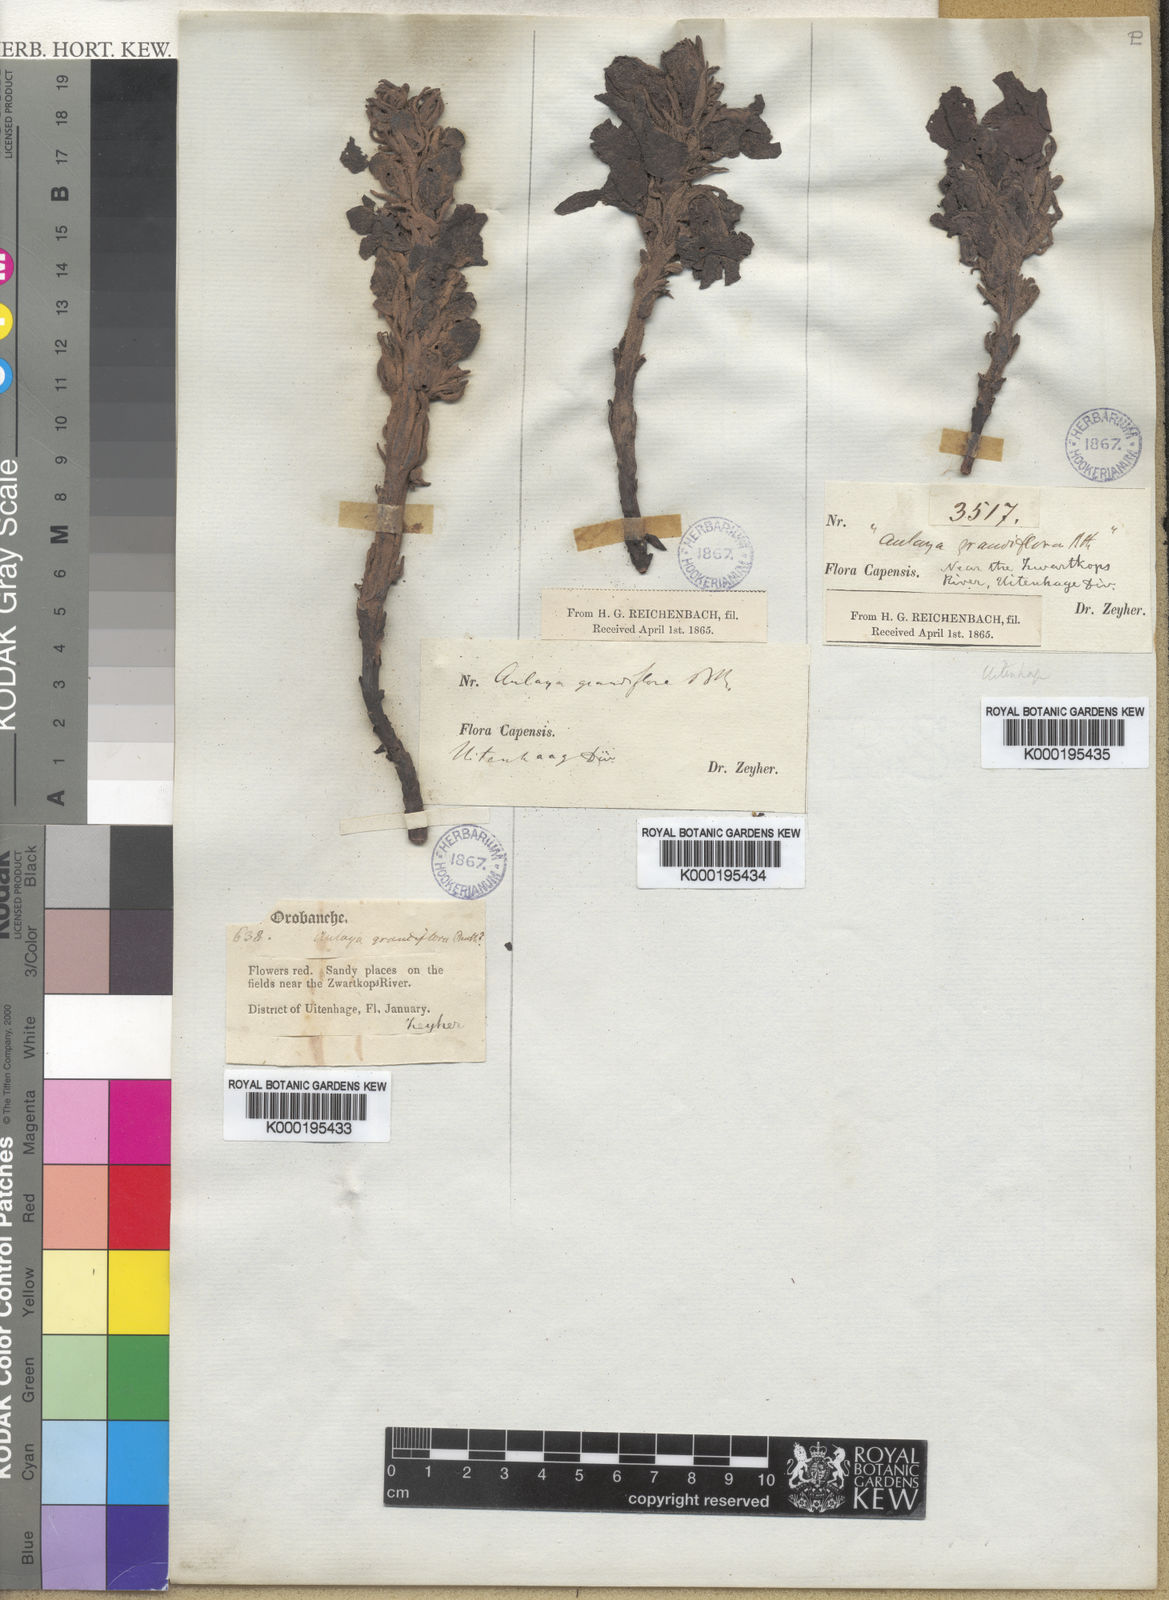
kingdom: Plantae
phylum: Tracheophyta
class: Magnoliopsida
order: Lamiales
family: Orobanchaceae
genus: Harveya
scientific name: Harveya
